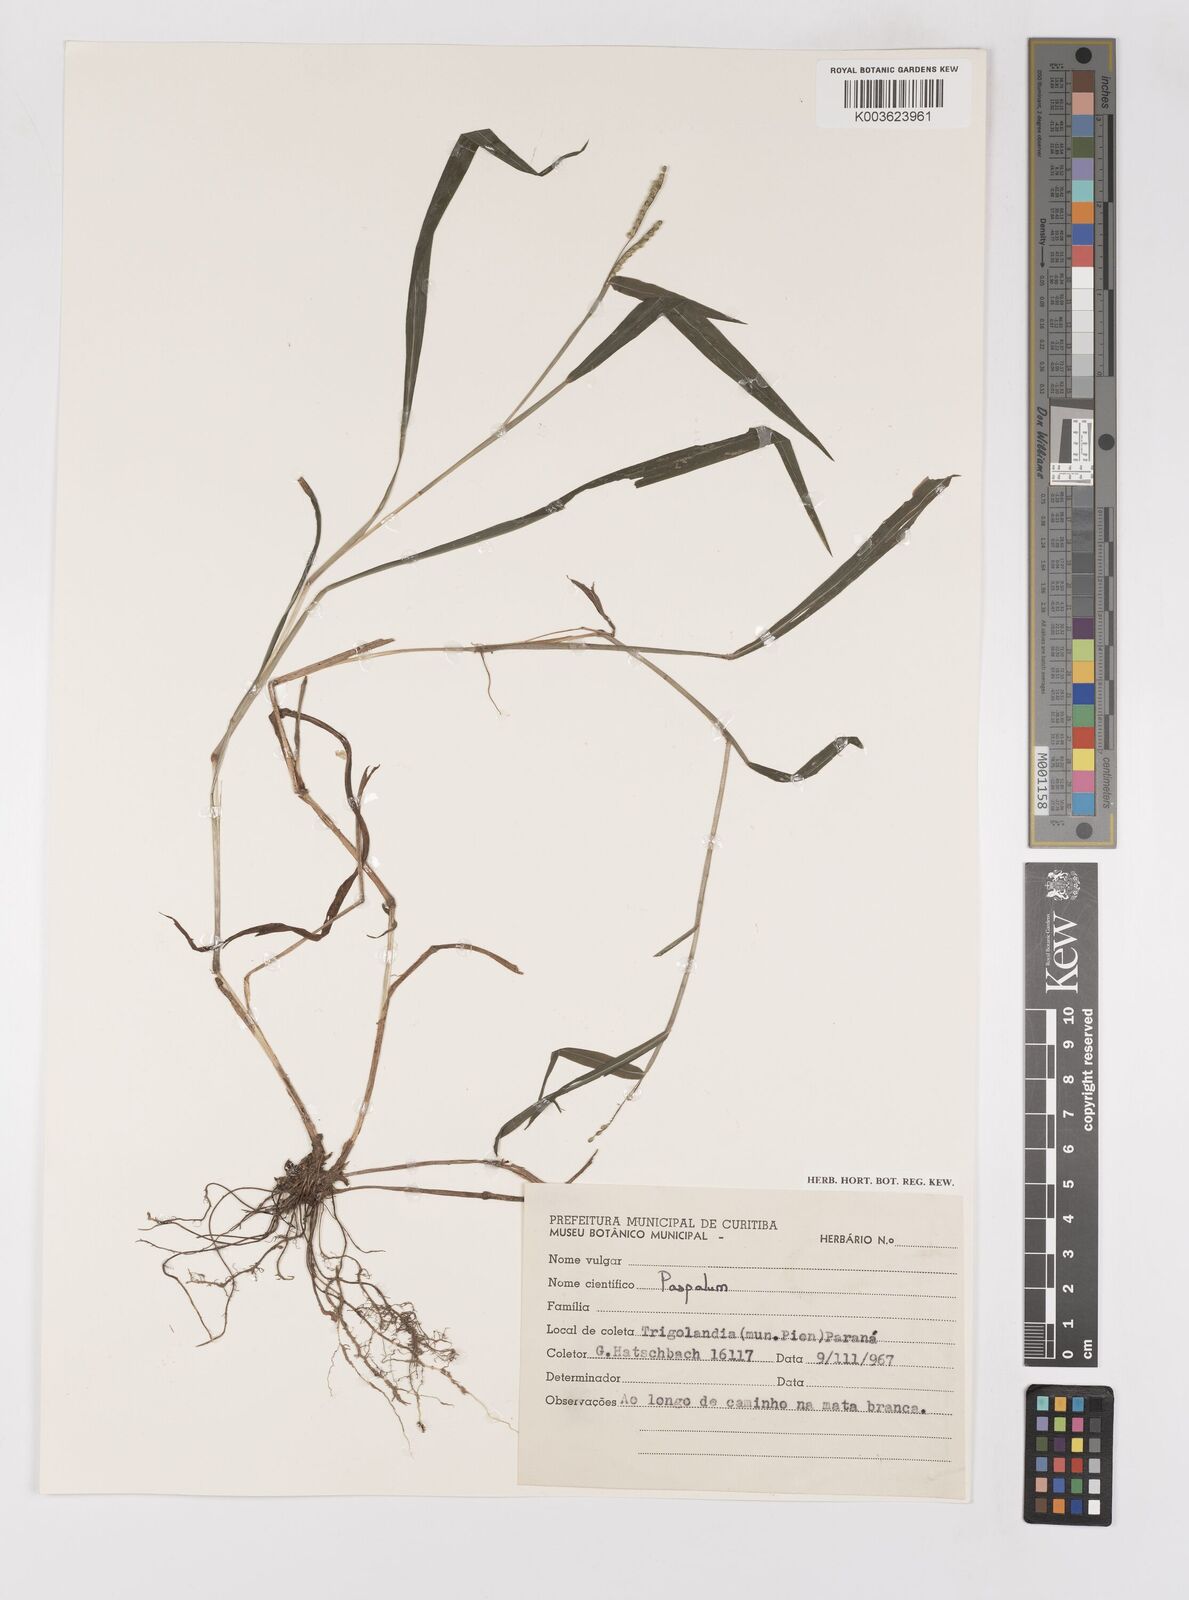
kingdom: Plantae
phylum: Tracheophyta
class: Liliopsida
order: Poales
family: Poaceae
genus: Paspalum
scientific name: Paspalum nutans
